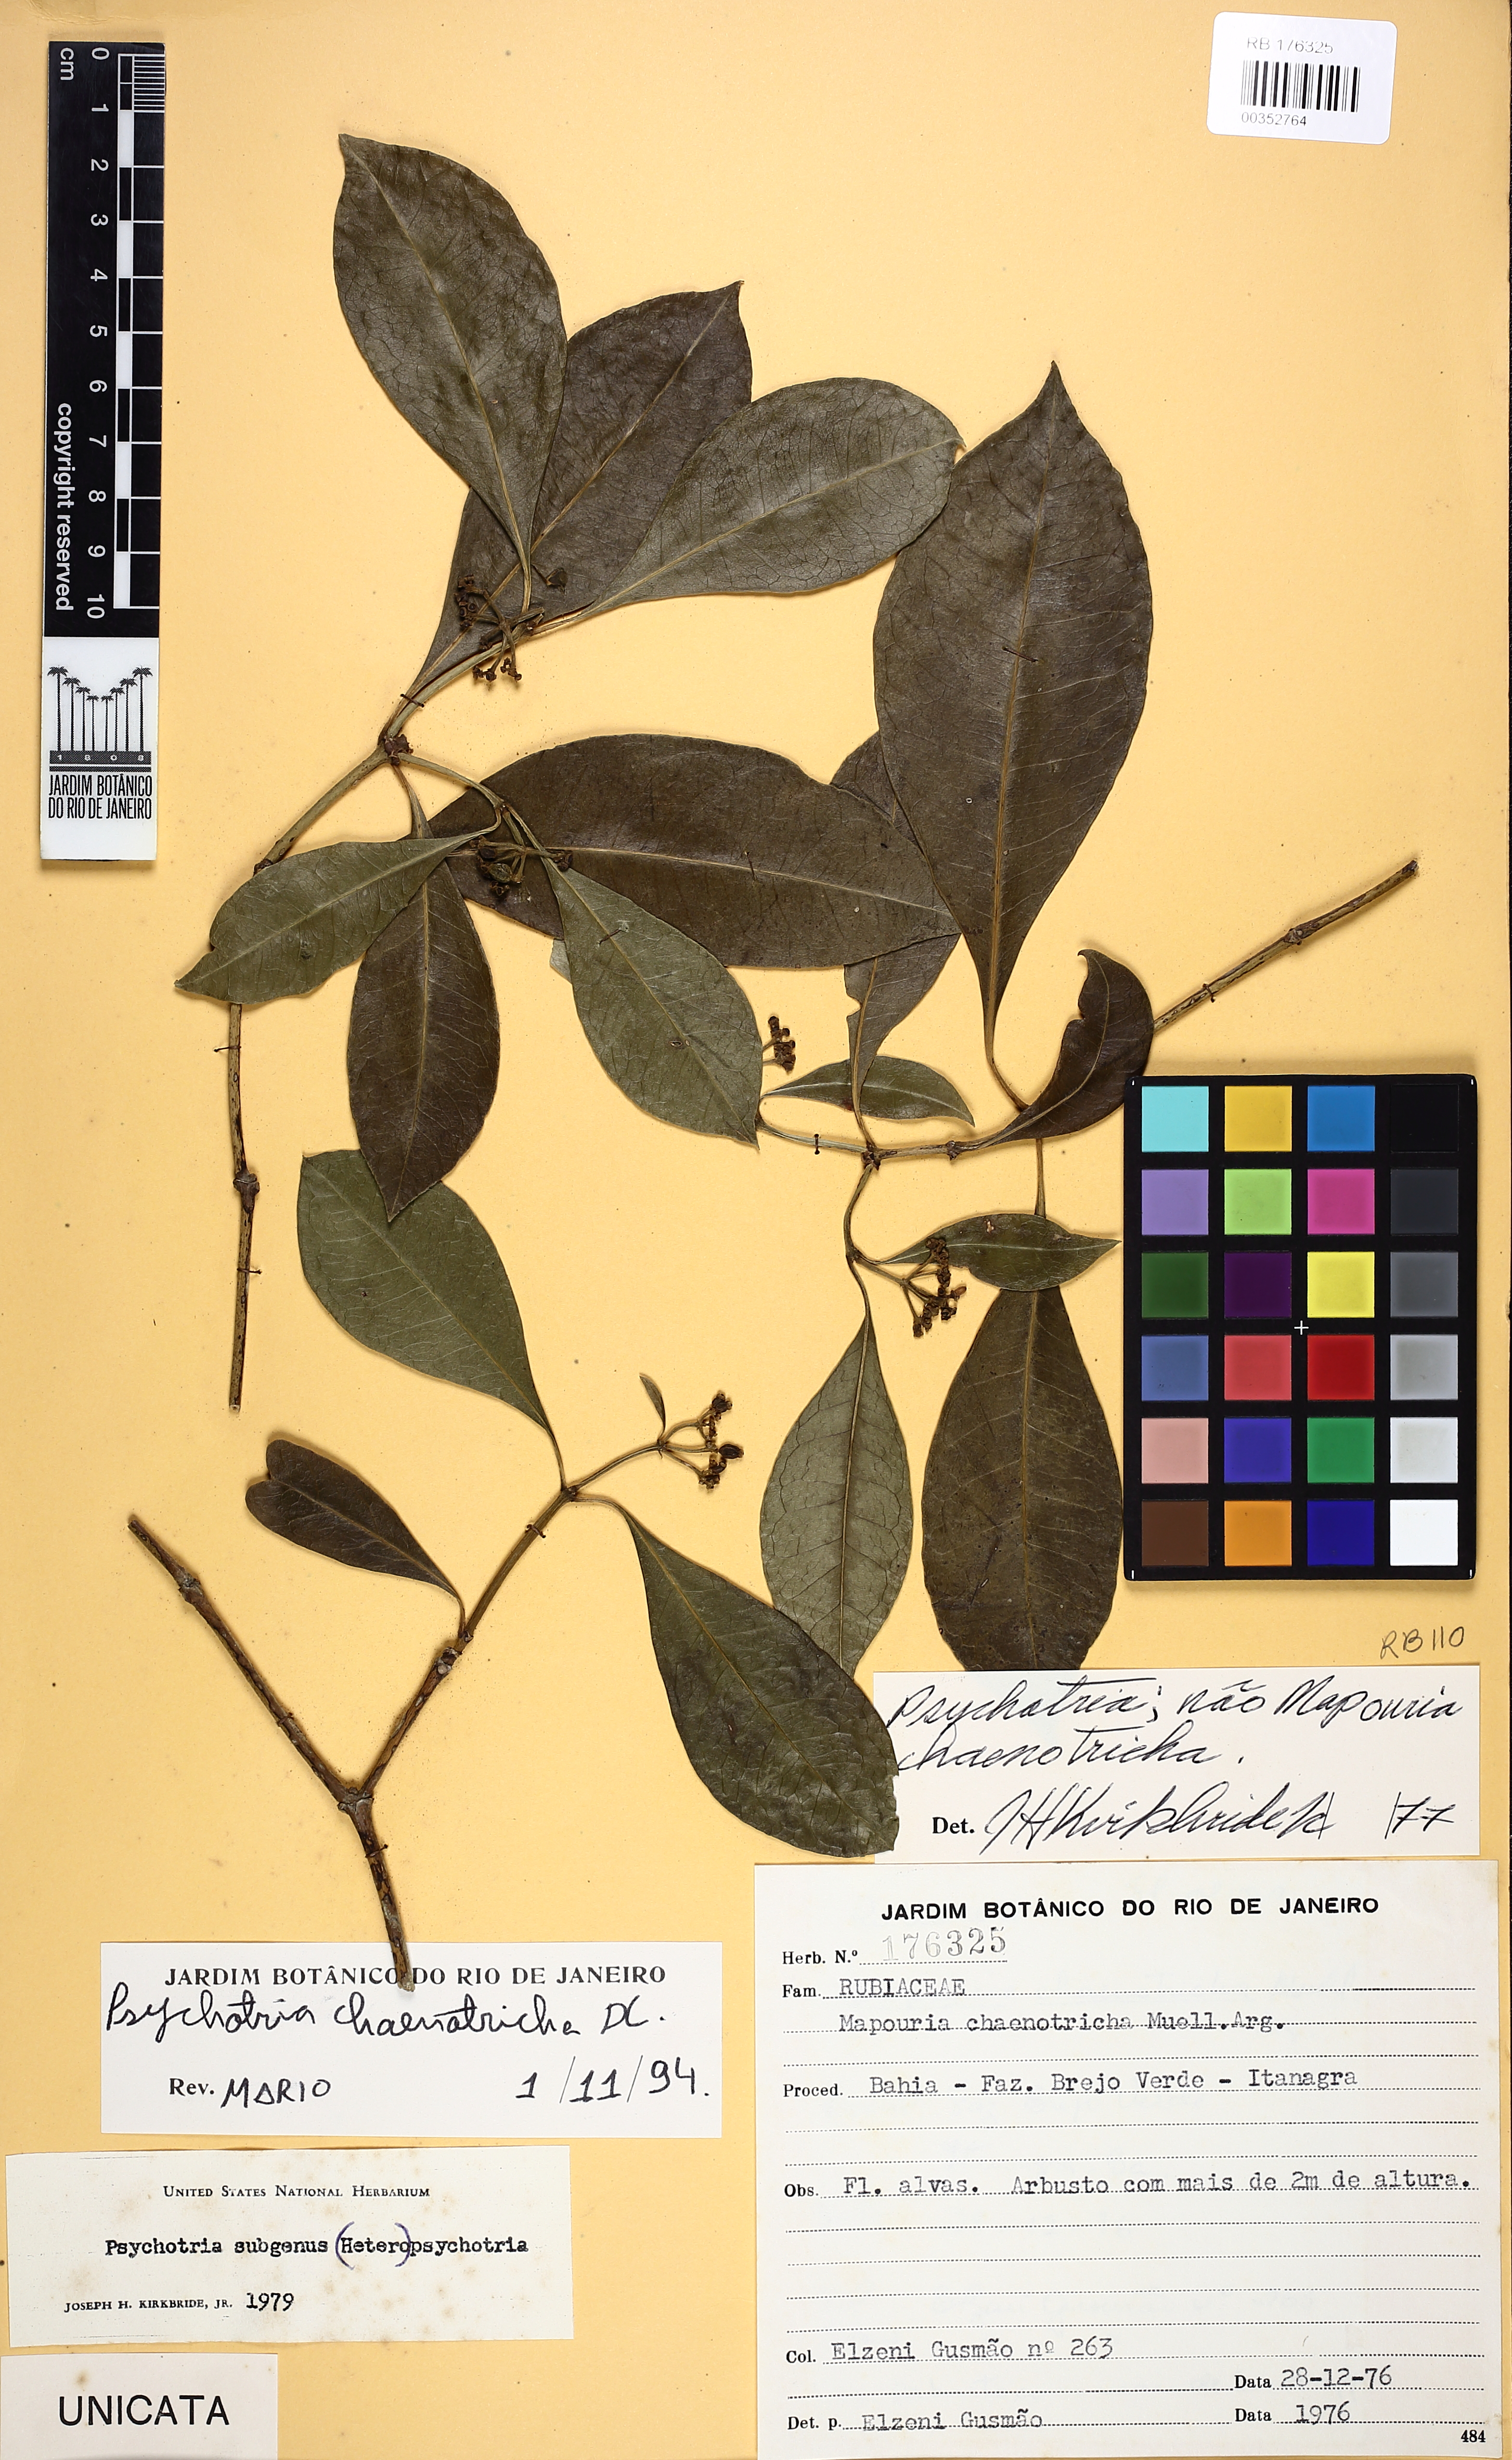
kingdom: Plantae
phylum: Tracheophyta
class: Magnoliopsida
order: Gentianales
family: Rubiaceae
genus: Eumachia
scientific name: Eumachia chaenotricha
